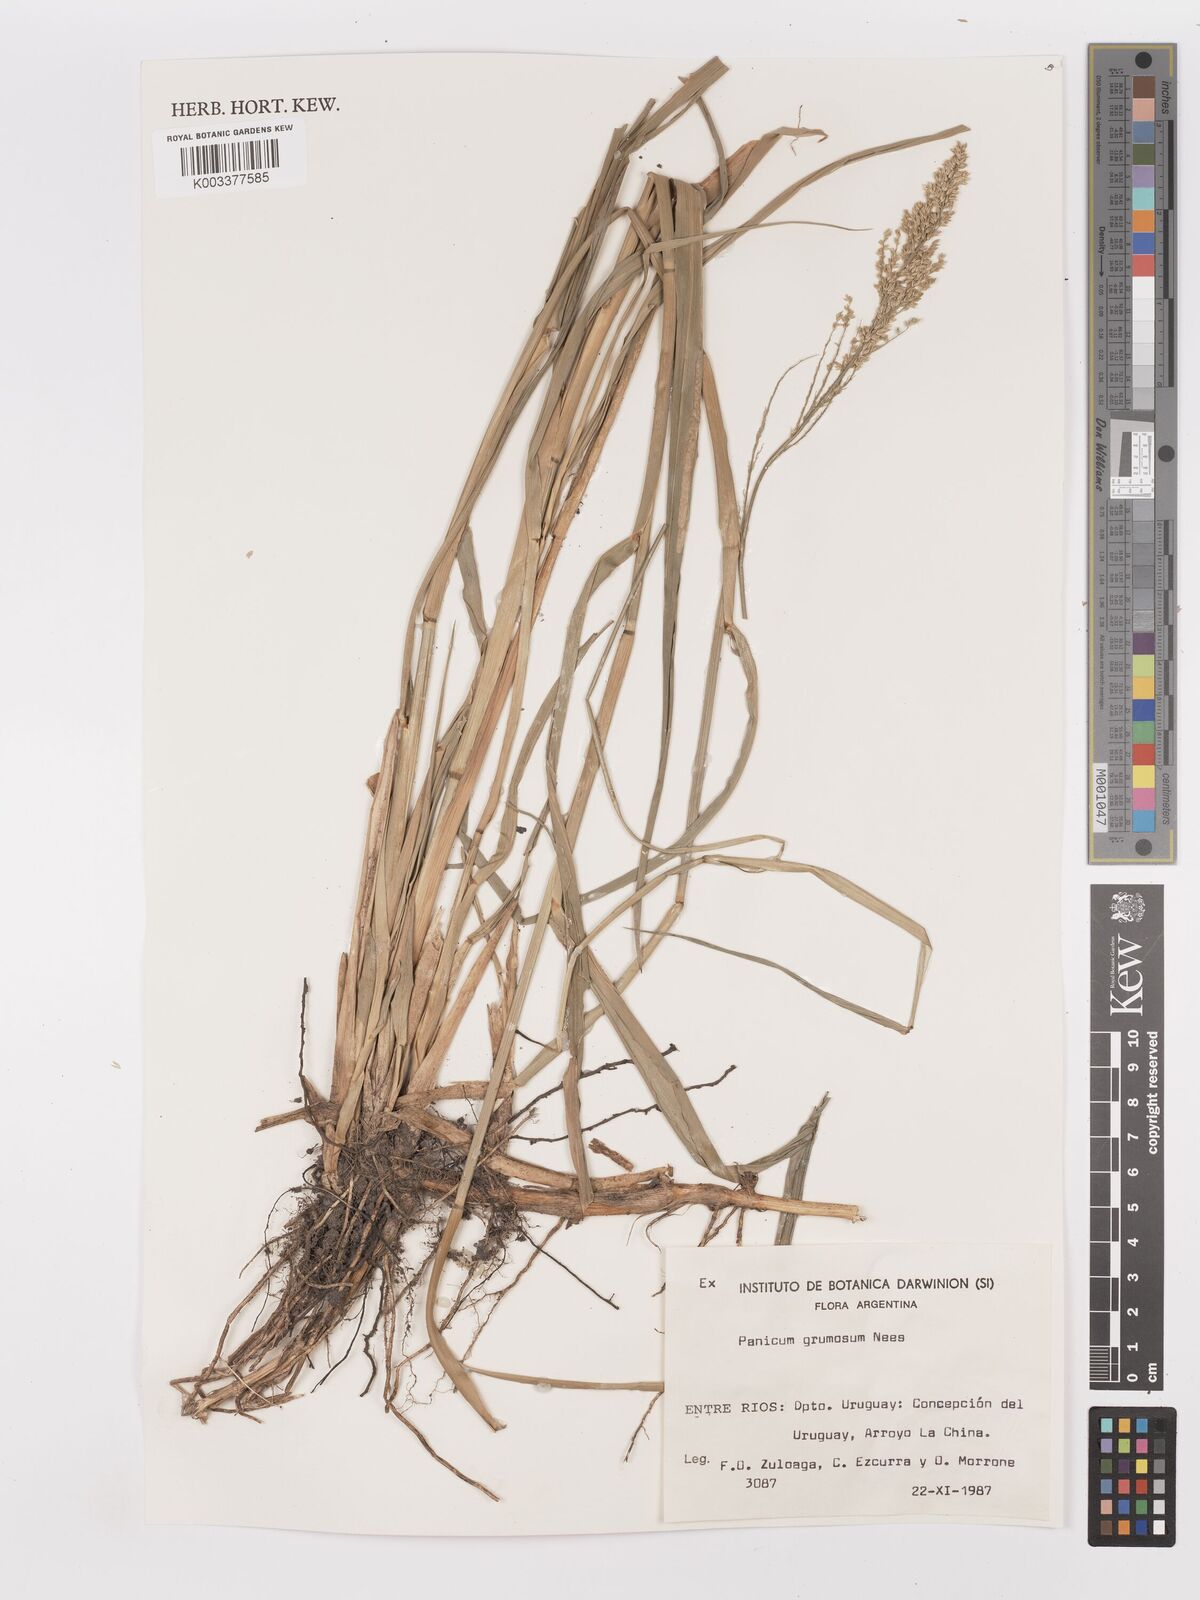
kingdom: Plantae
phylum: Tracheophyta
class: Liliopsida
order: Poales
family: Poaceae
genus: Hymenachne
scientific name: Hymenachne grumosa
